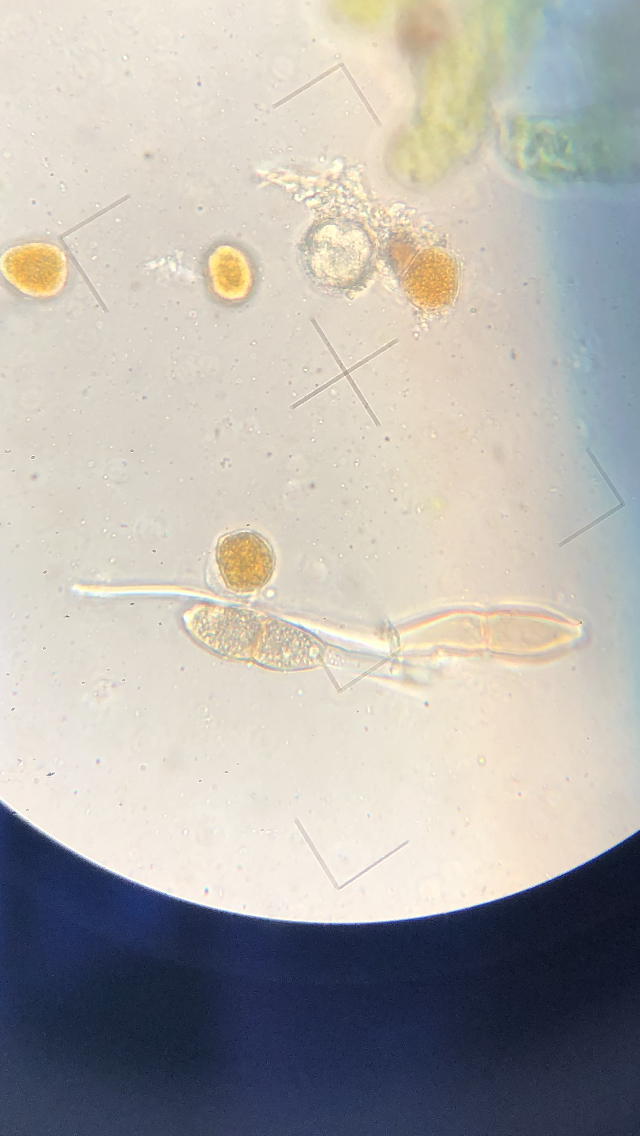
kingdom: Fungi
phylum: Basidiomycota
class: Pucciniomycetes
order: Pucciniales
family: Pucciniaceae
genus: Puccinia
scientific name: Puccinia sessilis
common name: Arum rust
